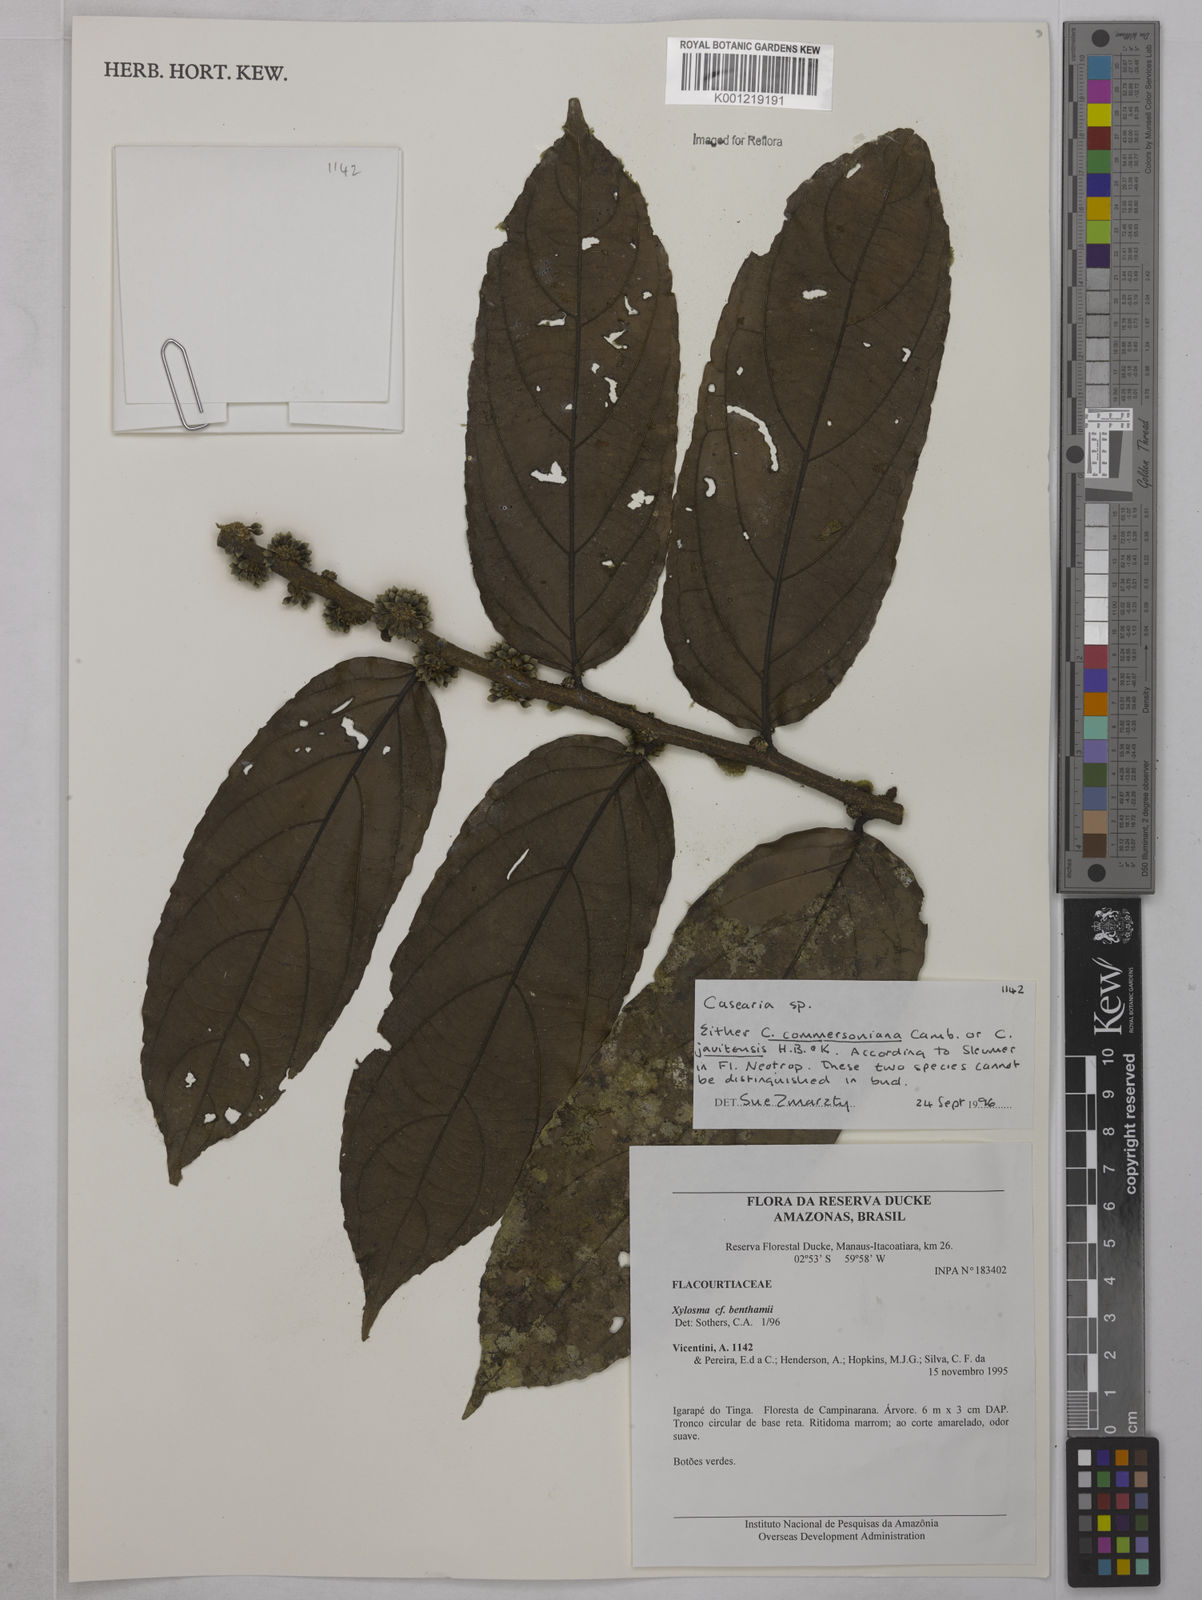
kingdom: Plantae
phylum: Tracheophyta
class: Magnoliopsida
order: Malpighiales
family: Salicaceae
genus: Piparea
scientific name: Piparea dentata
